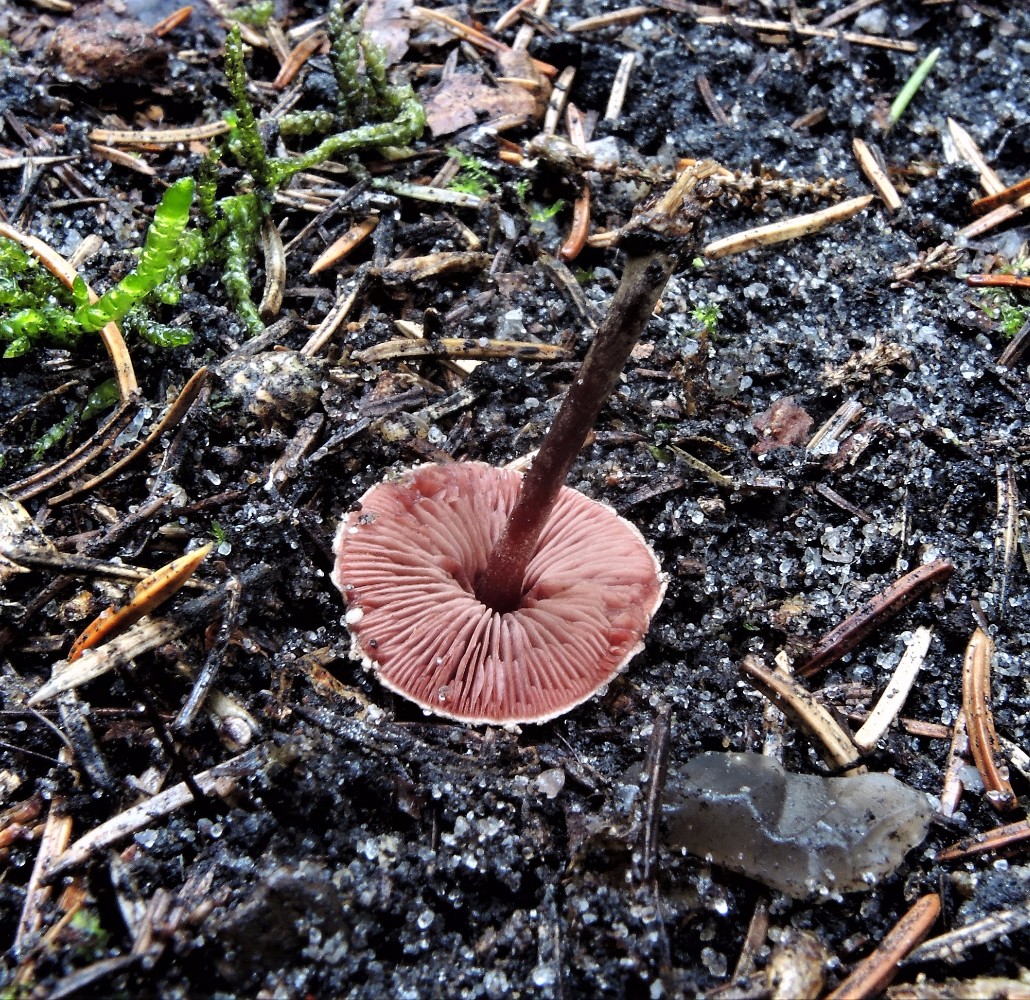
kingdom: Fungi
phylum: Basidiomycota
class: Agaricomycetes
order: Agaricales
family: Agaricaceae
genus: Melanophyllum
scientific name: Melanophyllum haematospermum
